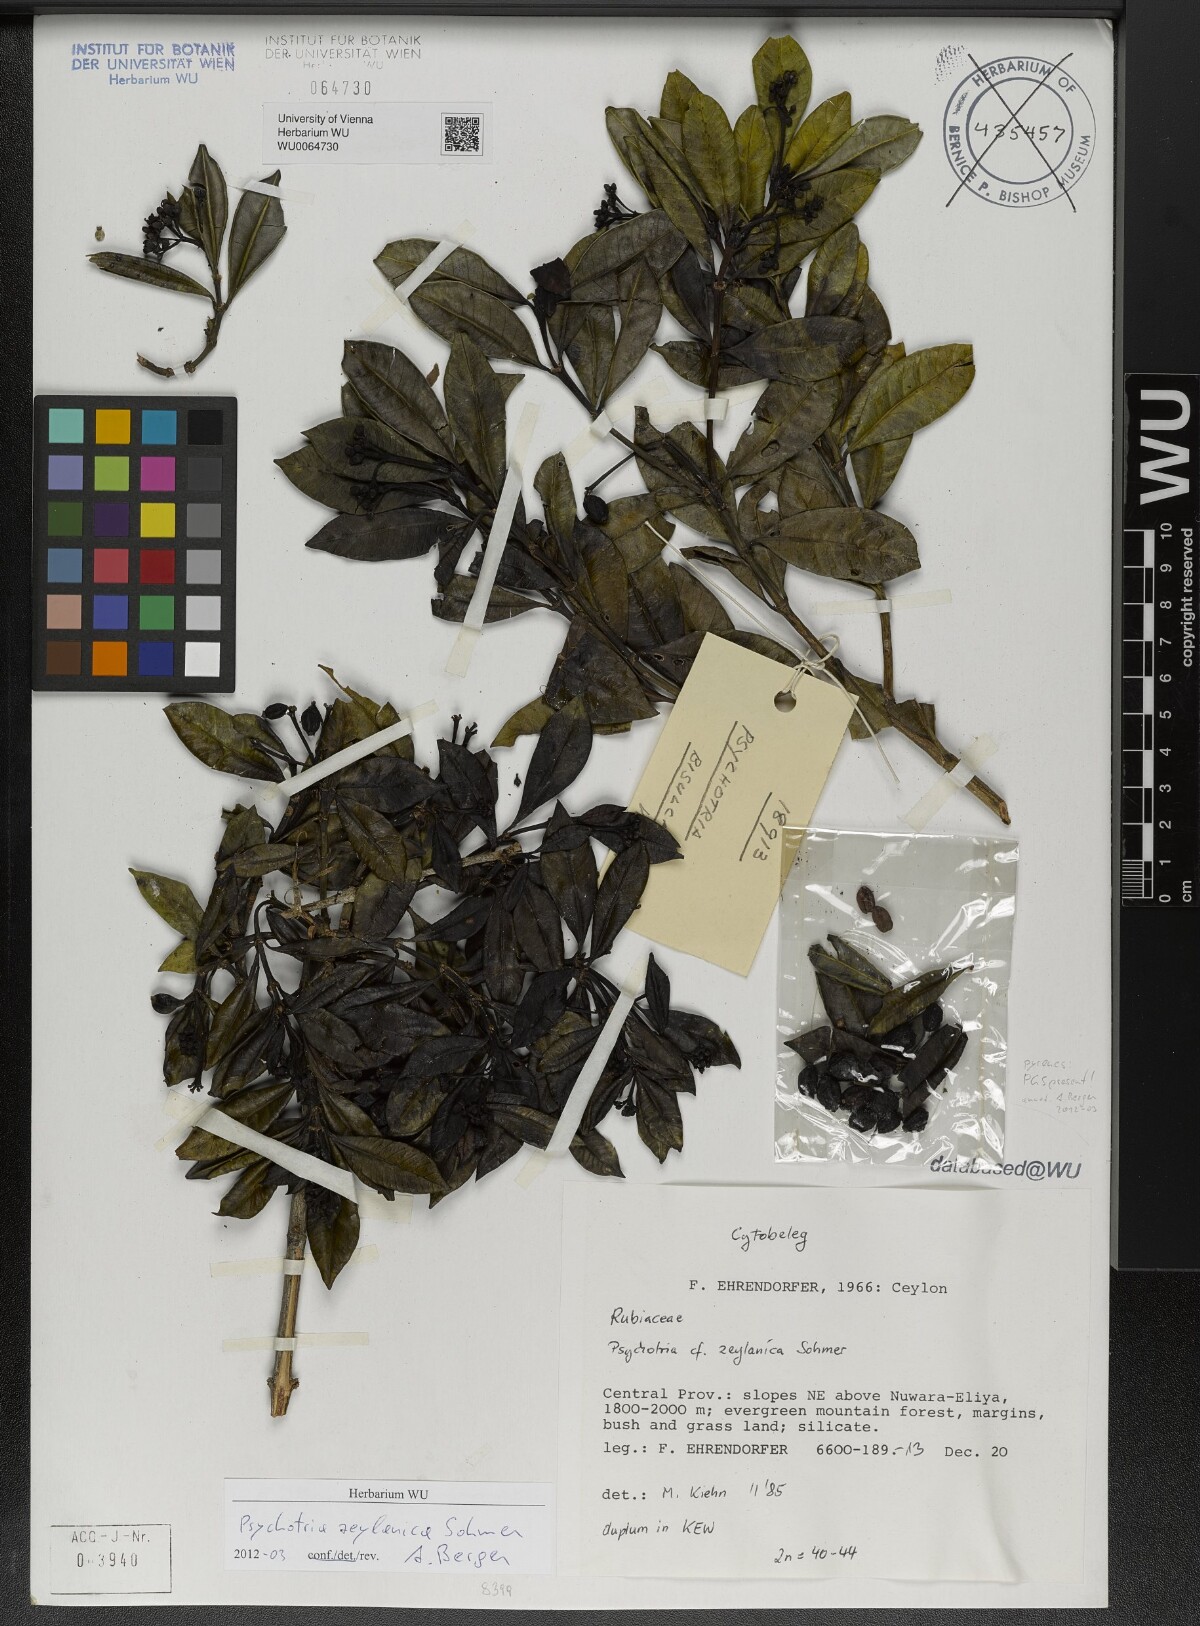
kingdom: Plantae
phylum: Tracheophyta
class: Magnoliopsida
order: Gentianales
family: Rubiaceae
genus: Psychotria
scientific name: Psychotria zeylanica
